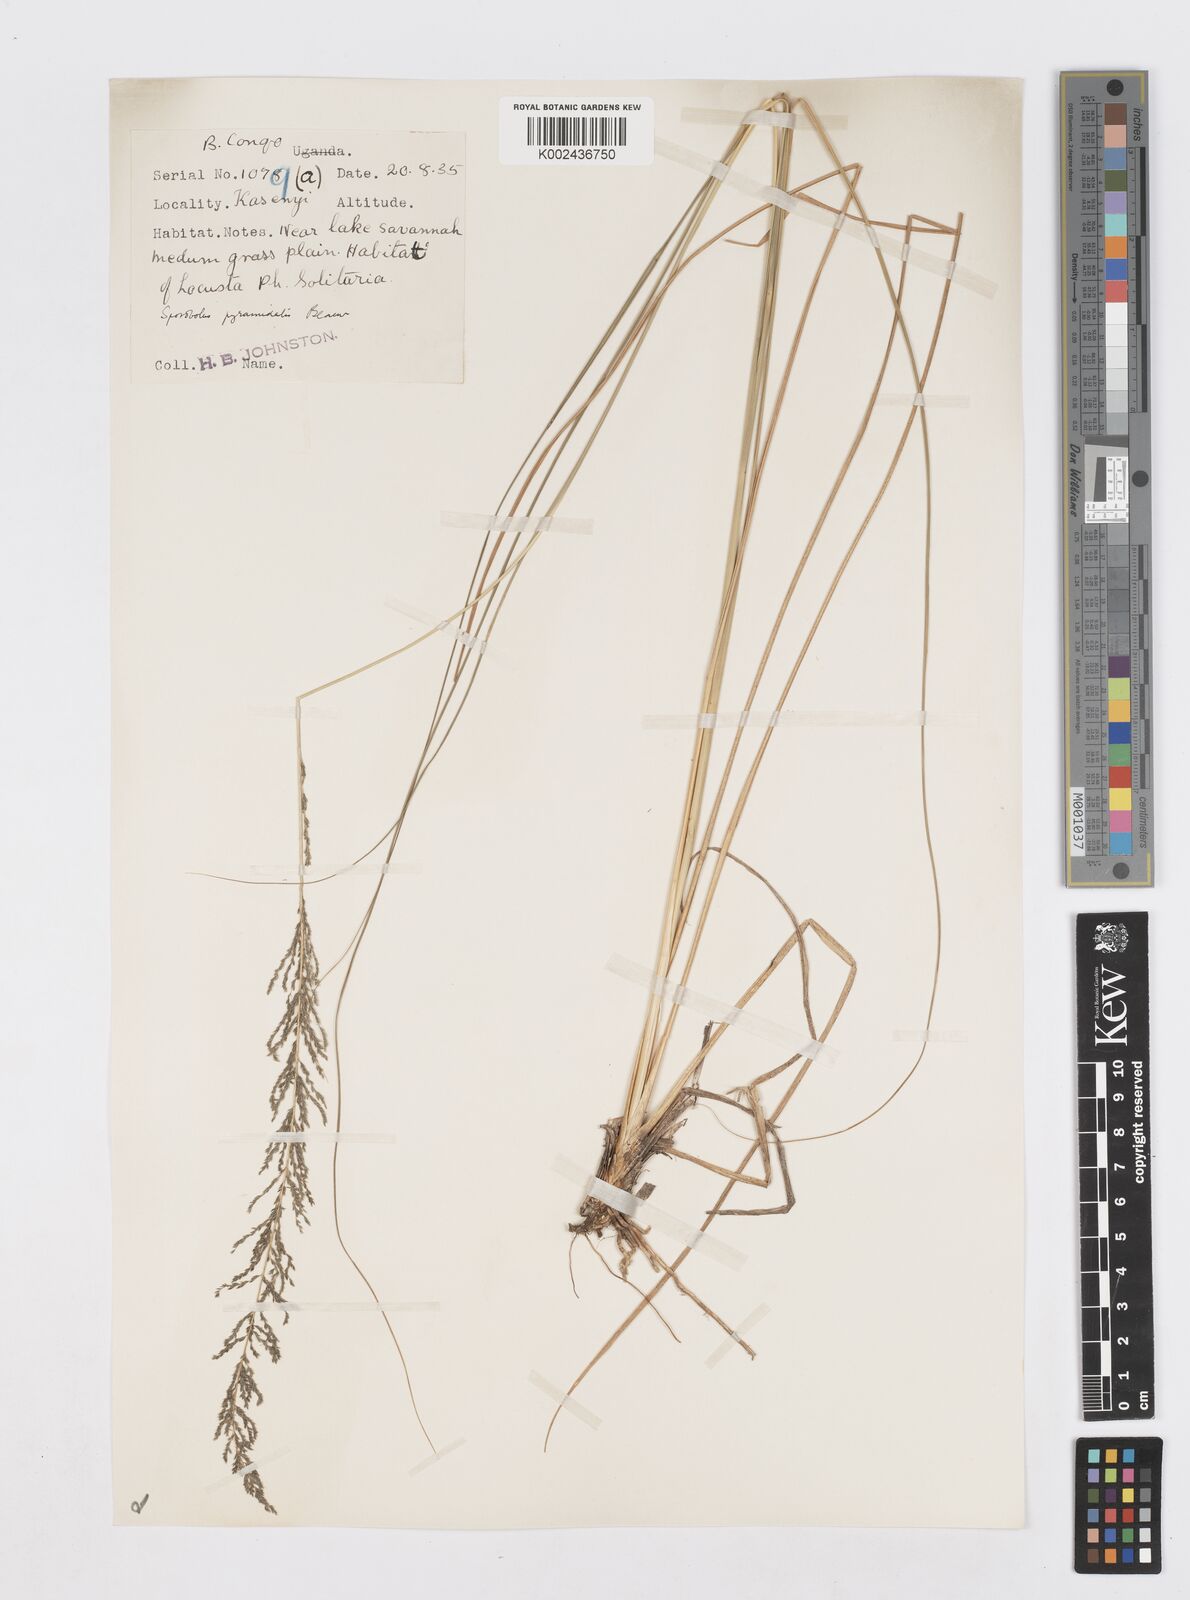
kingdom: Plantae
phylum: Tracheophyta
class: Liliopsida
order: Poales
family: Poaceae
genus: Sporobolus
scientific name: Sporobolus pyramidalis
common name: West indian dropseed
